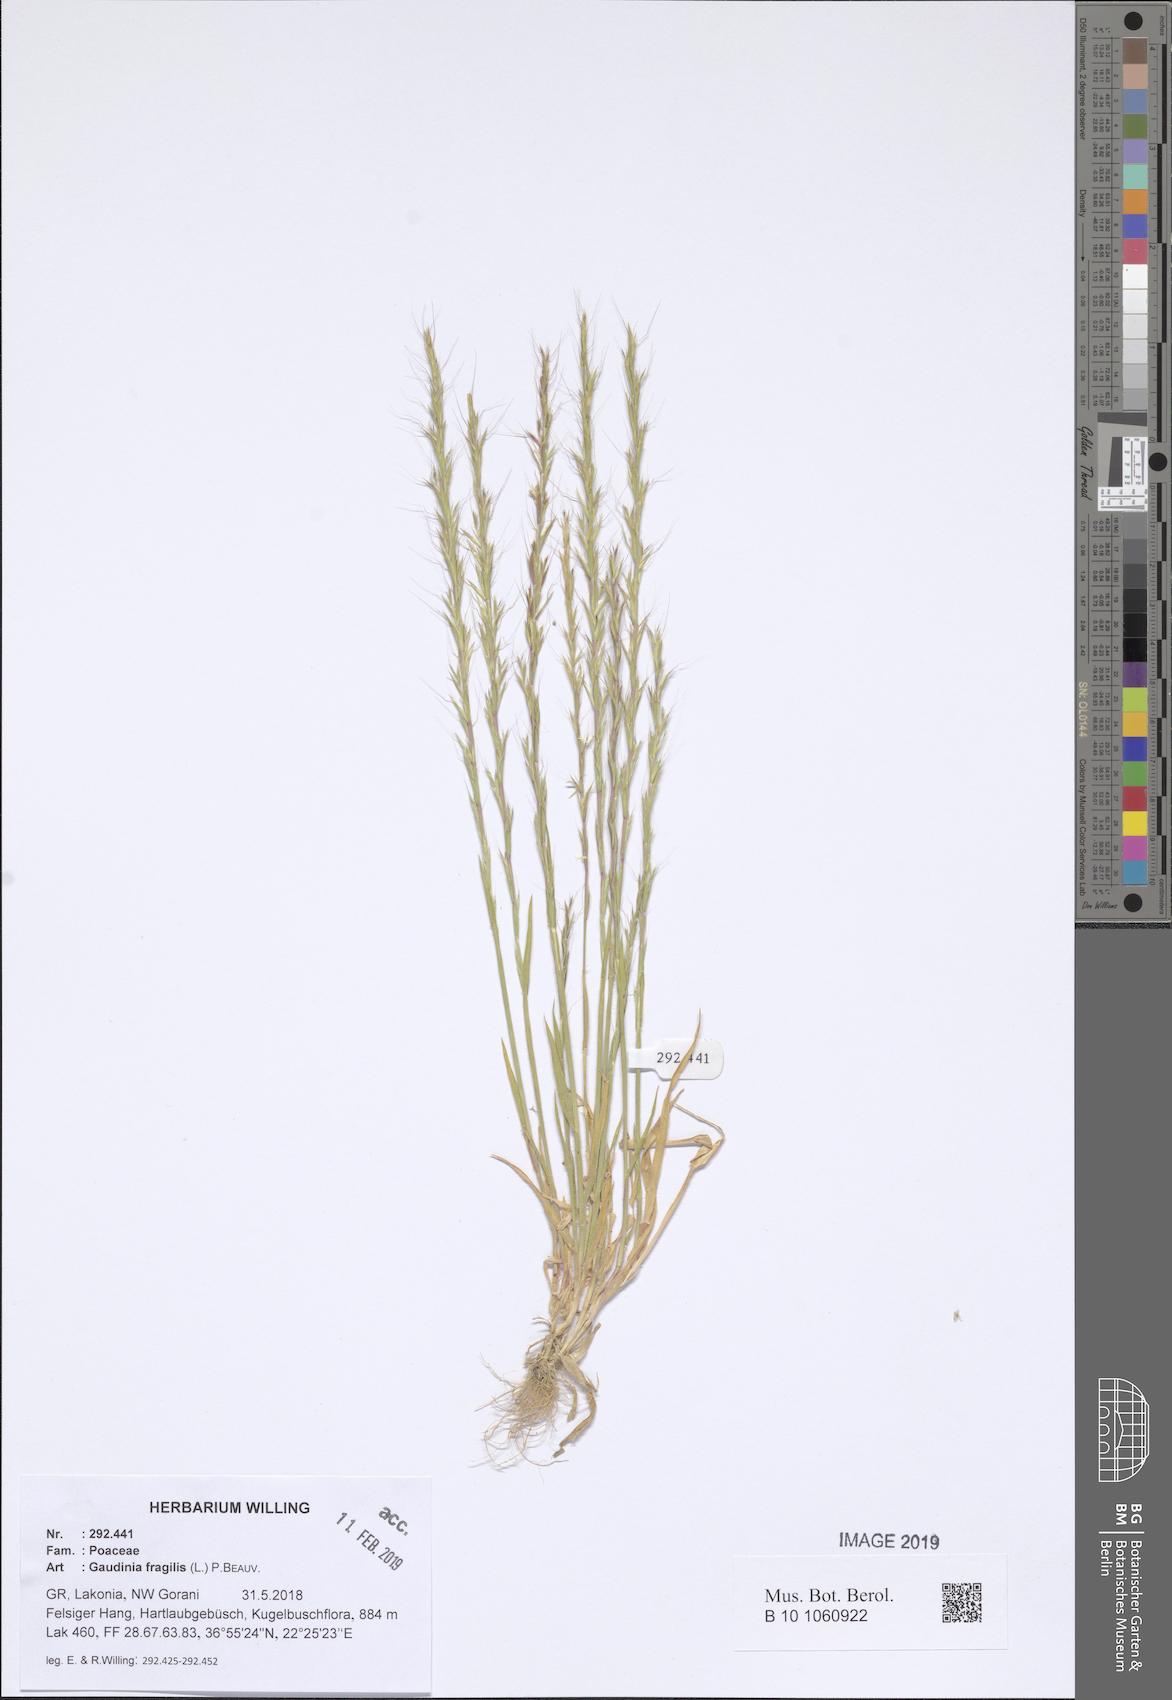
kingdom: Plantae
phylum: Tracheophyta
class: Liliopsida
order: Poales
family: Poaceae
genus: Gaudinia
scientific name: Gaudinia fragilis
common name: French oat-grass
